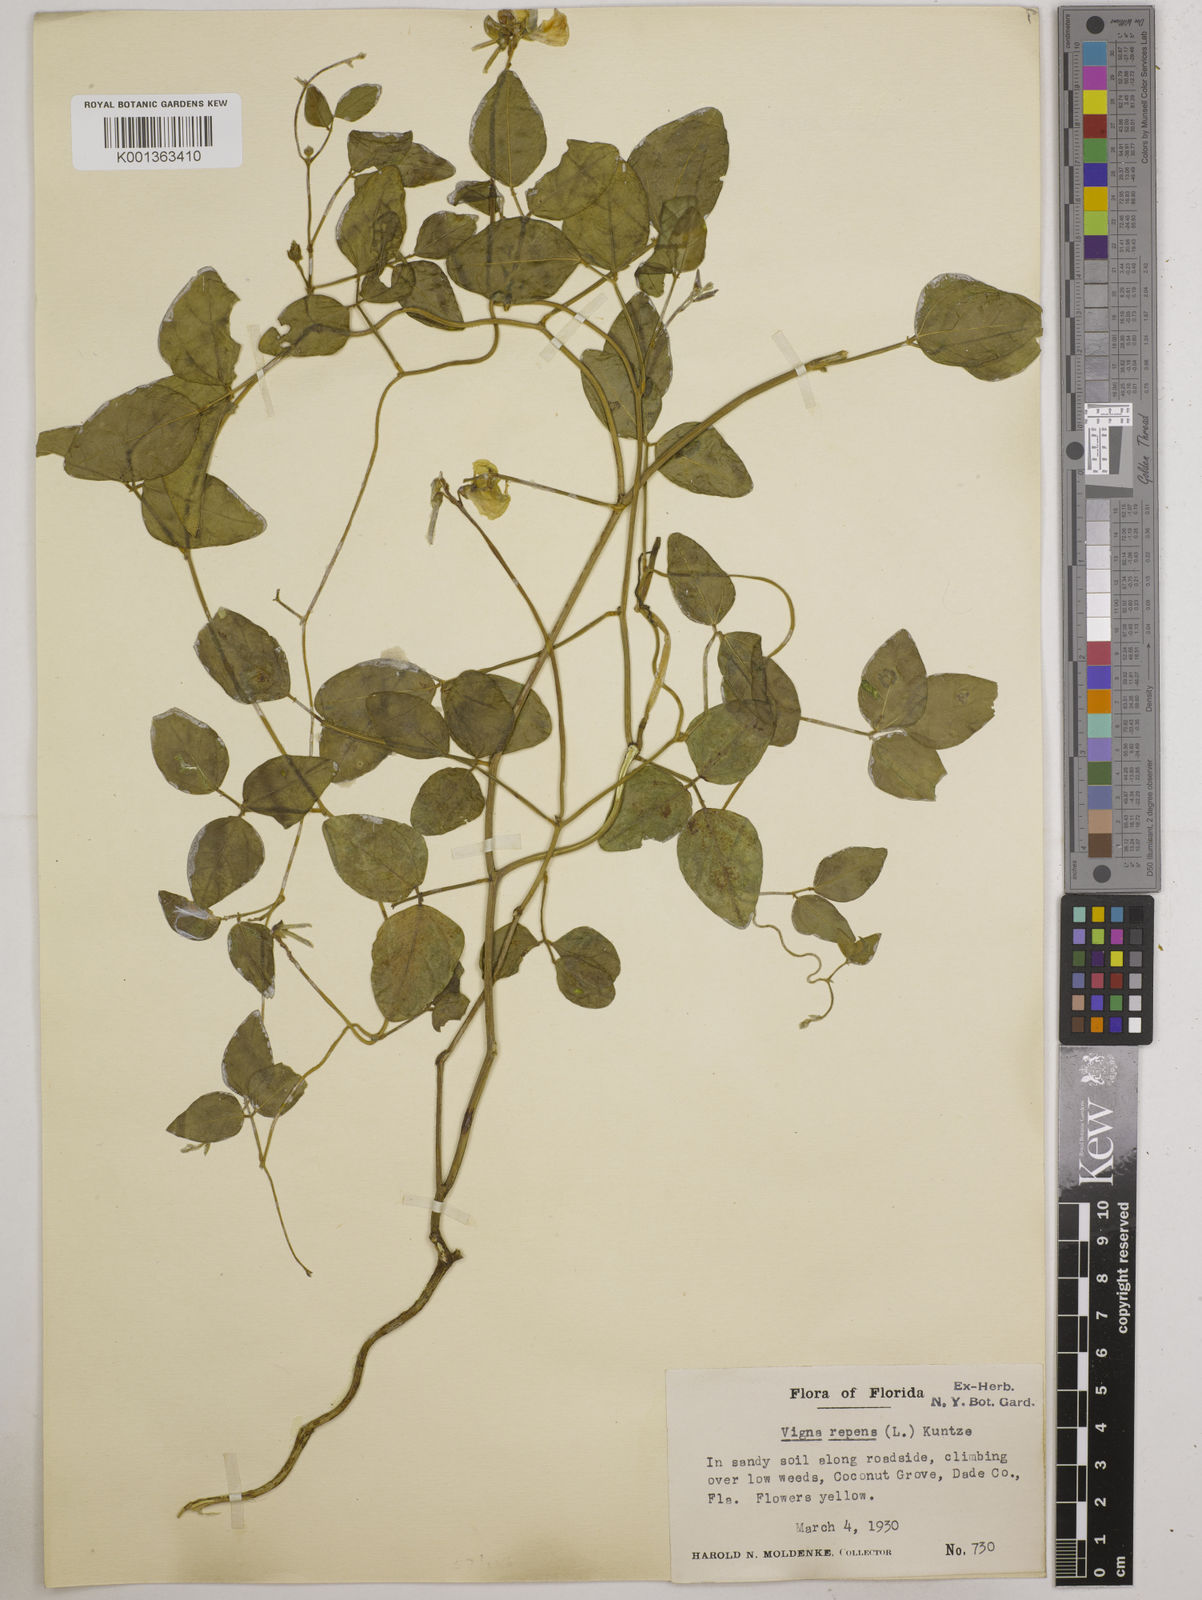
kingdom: Plantae
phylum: Tracheophyta
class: Magnoliopsida
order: Fabales
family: Fabaceae
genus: Vigna
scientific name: Vigna luteola
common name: Hairypod cowpea
